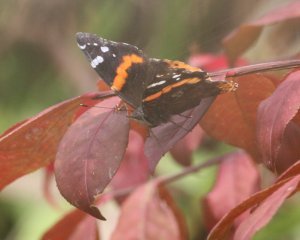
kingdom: Animalia
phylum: Arthropoda
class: Insecta
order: Lepidoptera
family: Nymphalidae
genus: Vanessa
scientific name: Vanessa atalanta
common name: Red Admiral
